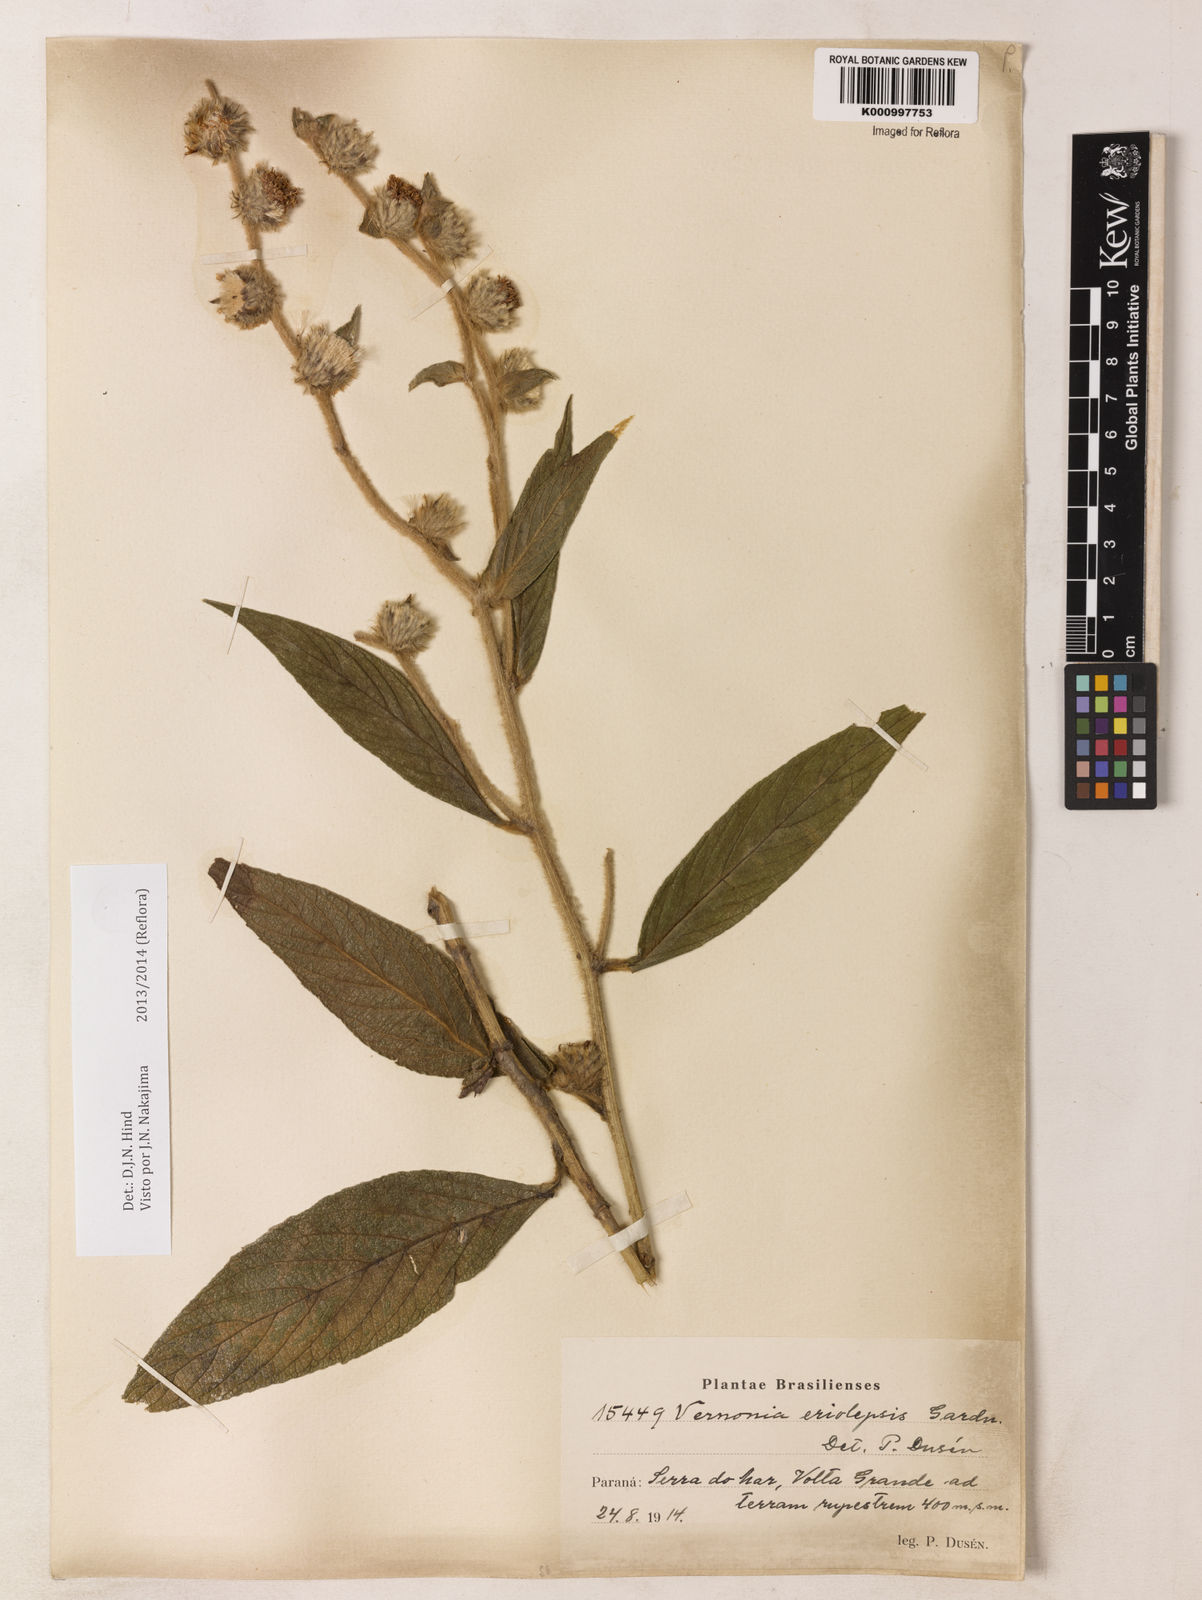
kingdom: Plantae
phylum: Tracheophyta
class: Magnoliopsida
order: Asterales
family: Asteraceae
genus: Lepidaploa
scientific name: Lepidaploa eriolepis
